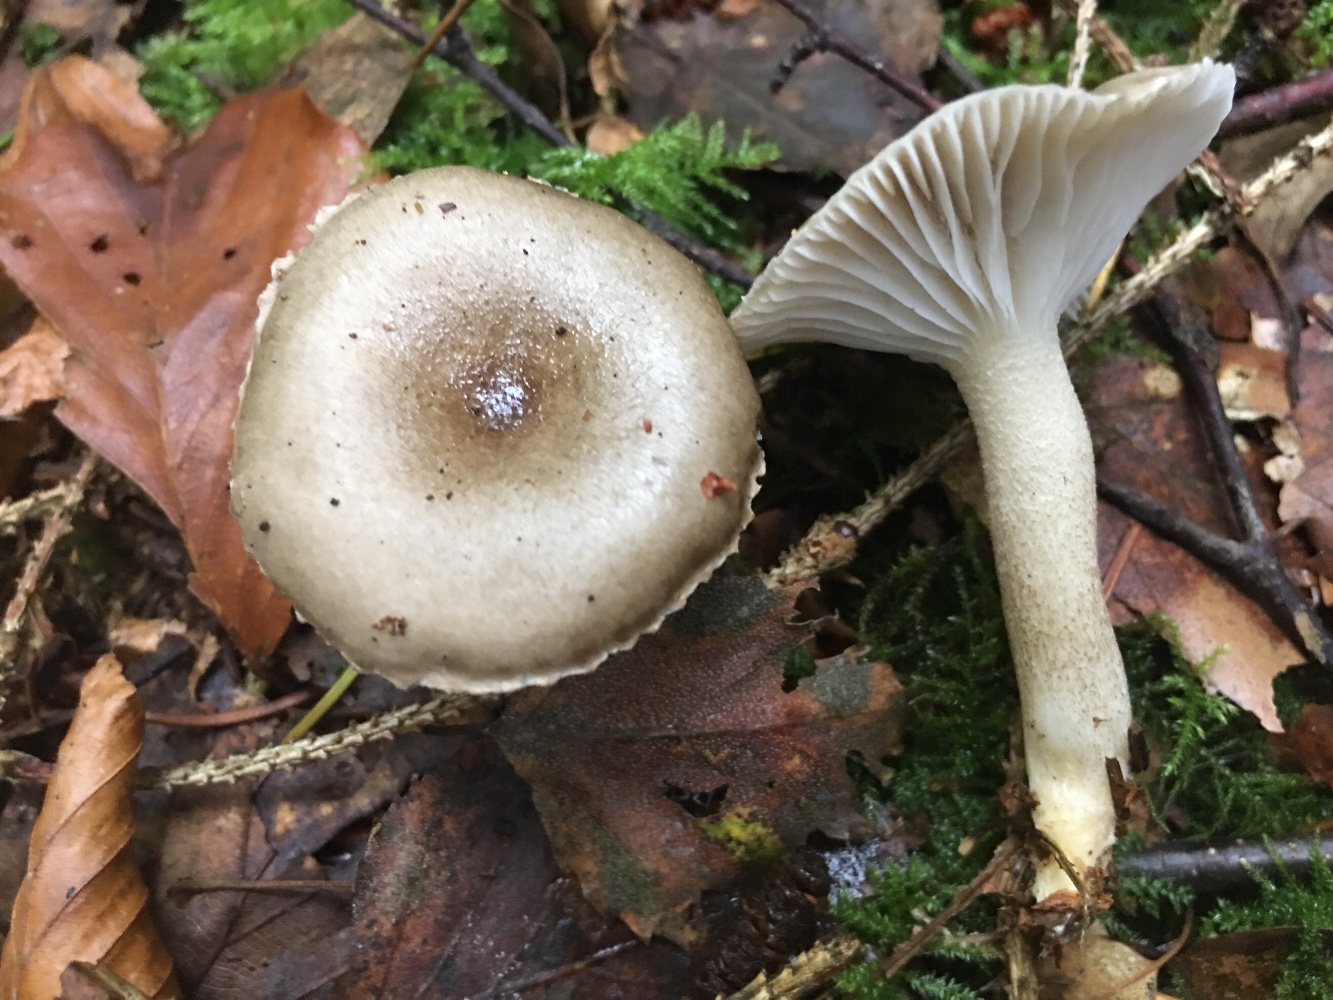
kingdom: Fungi
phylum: Basidiomycota
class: Agaricomycetes
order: Agaricales
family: Hygrophoraceae
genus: Hygrophorus
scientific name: Hygrophorus pustulatus
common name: mørkprikket sneglehat
